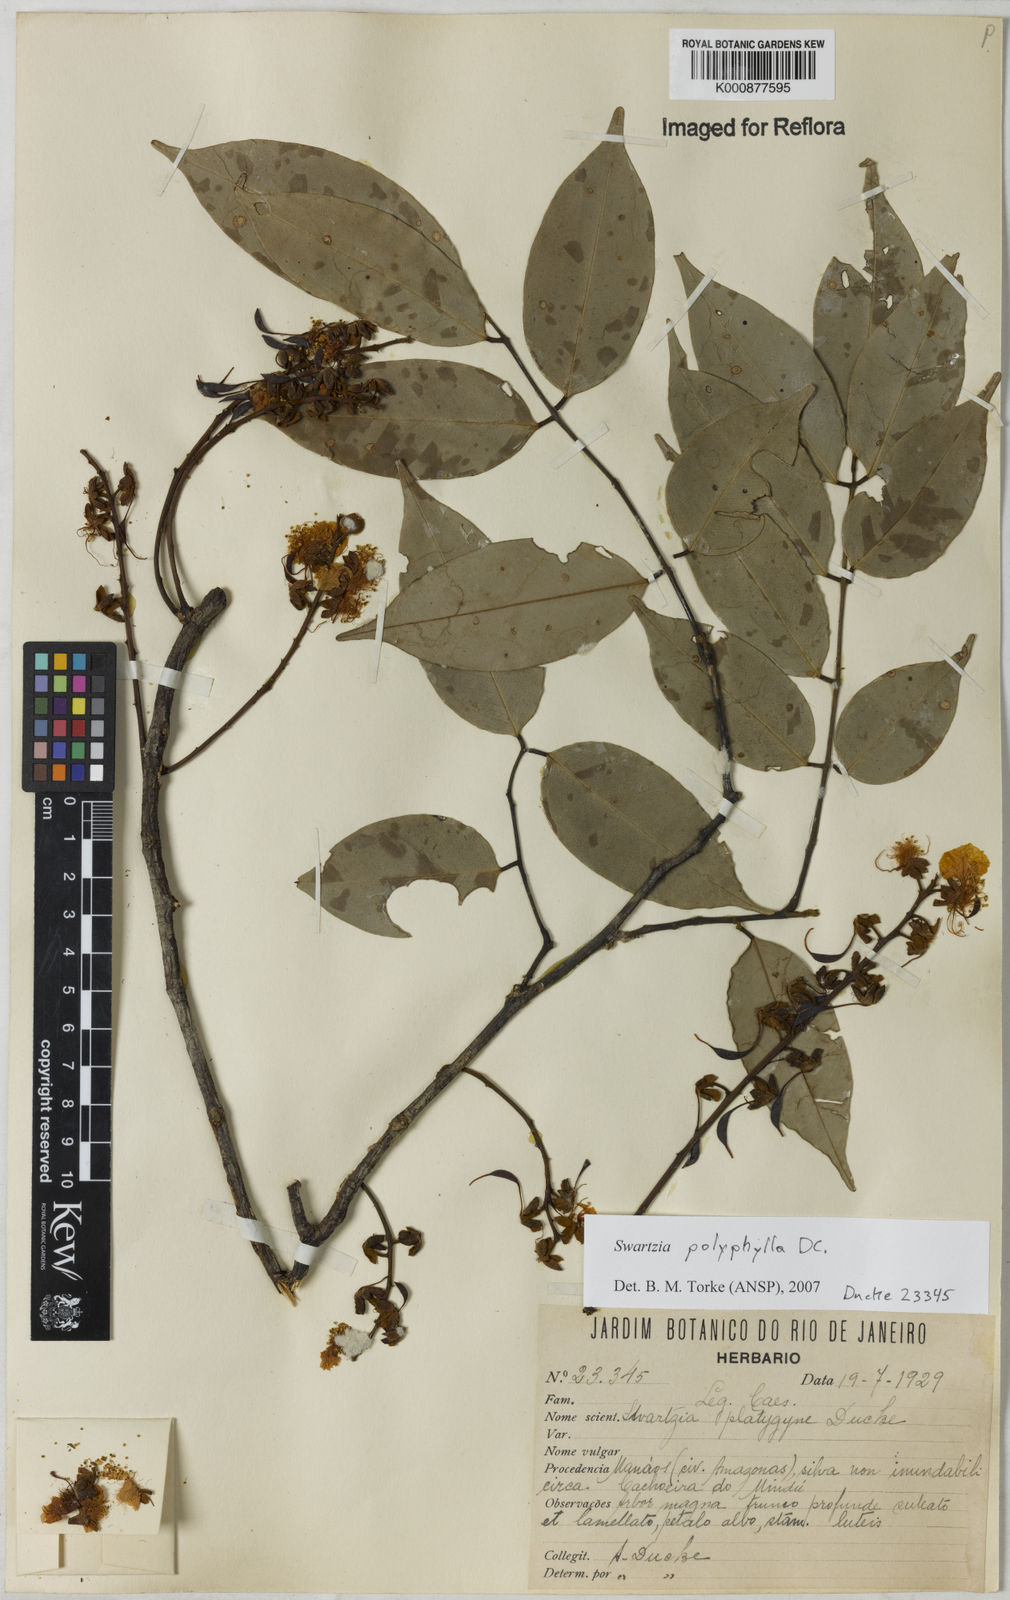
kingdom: Plantae
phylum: Tracheophyta
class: Magnoliopsida
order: Fabales
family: Fabaceae
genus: Swartzia
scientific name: Swartzia polyphylla
